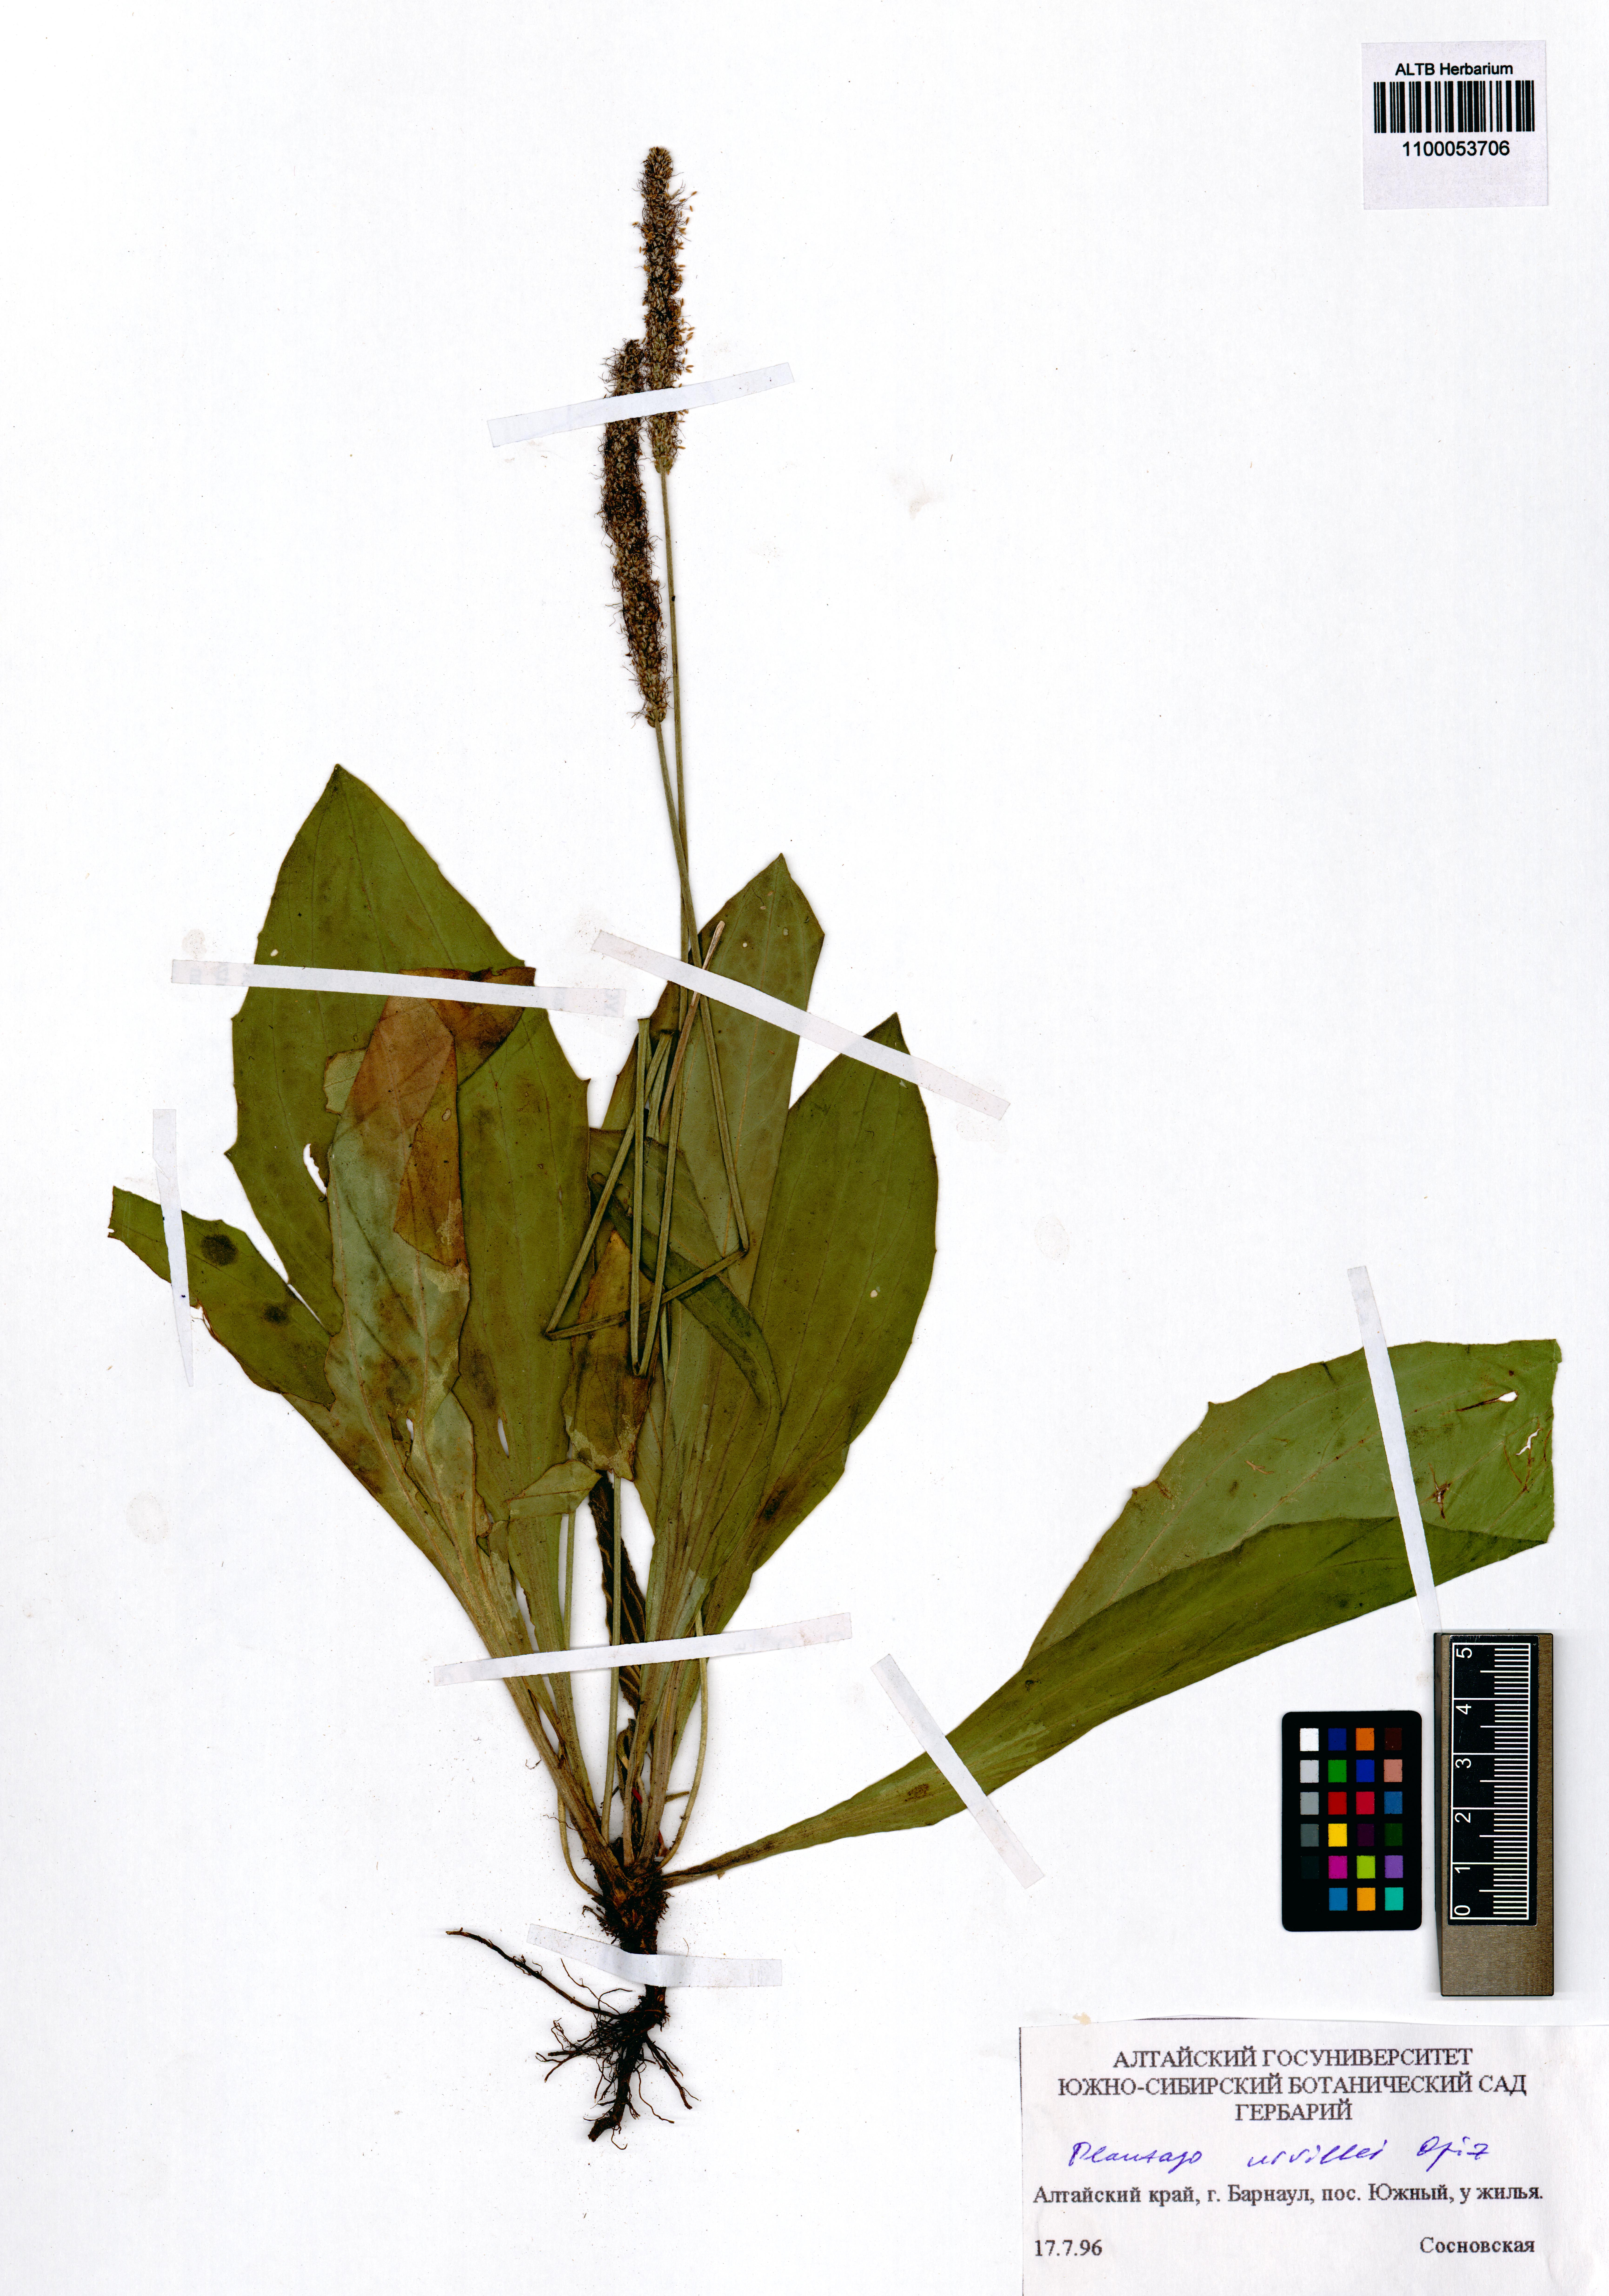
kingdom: Plantae
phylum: Tracheophyta
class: Magnoliopsida
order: Lamiales
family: Plantaginaceae
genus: Plantago
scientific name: Plantago urvillei
